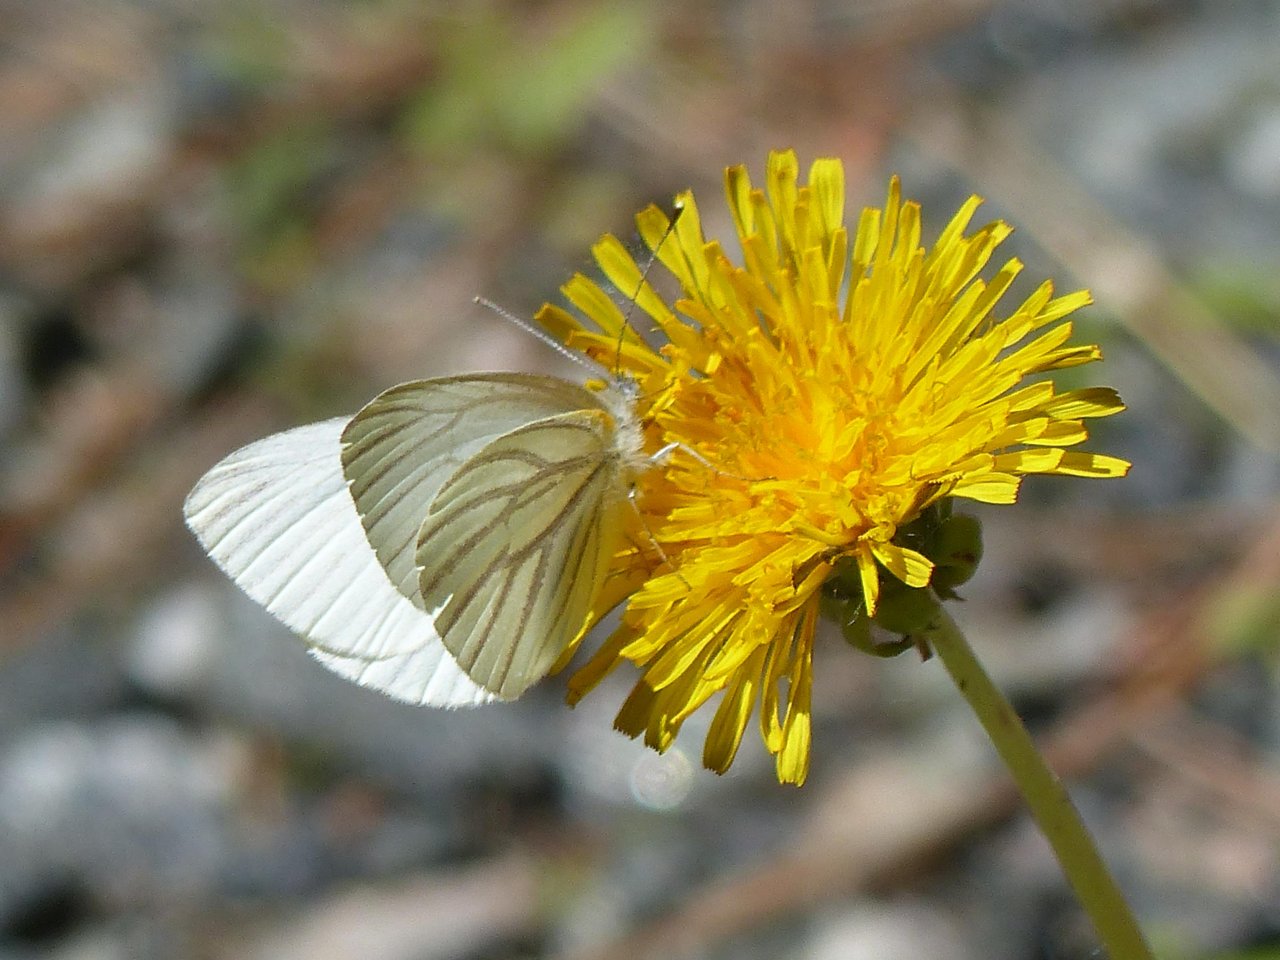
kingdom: Animalia
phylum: Arthropoda
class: Insecta
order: Lepidoptera
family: Pieridae
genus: Pieris
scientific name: Pieris oleracea
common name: Mustard White
